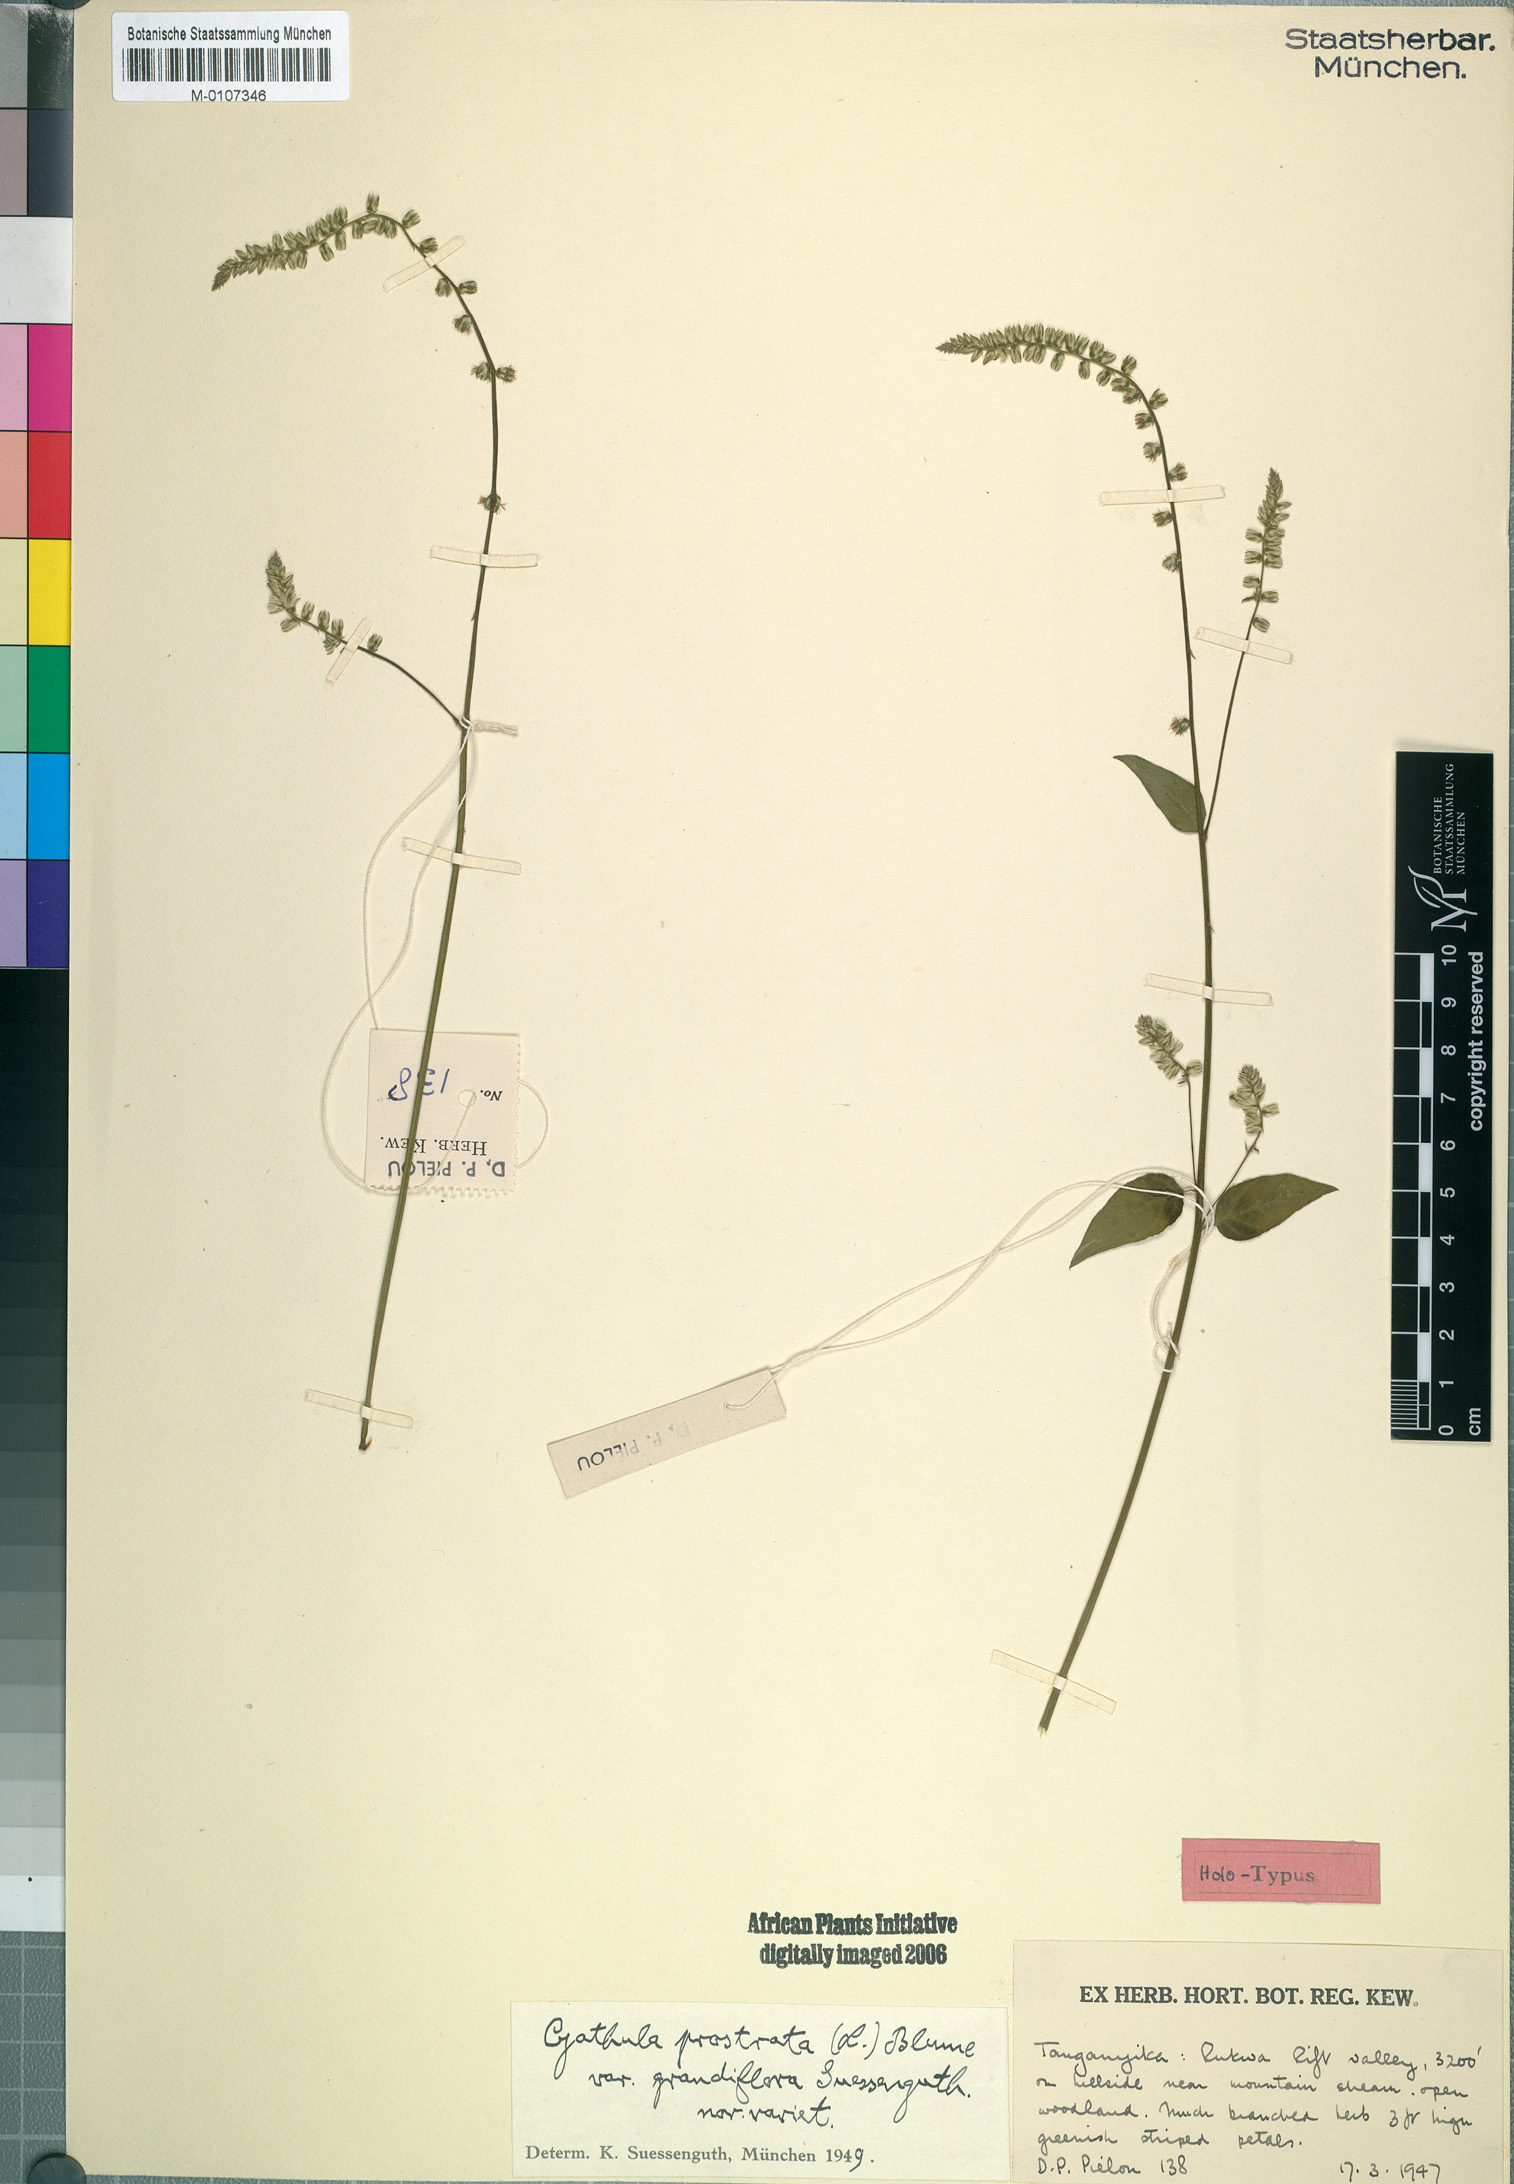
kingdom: Plantae
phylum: Tracheophyta
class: Magnoliopsida
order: Caryophyllales
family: Amaranthaceae
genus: Pupalia
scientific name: Pupalia micrantha
